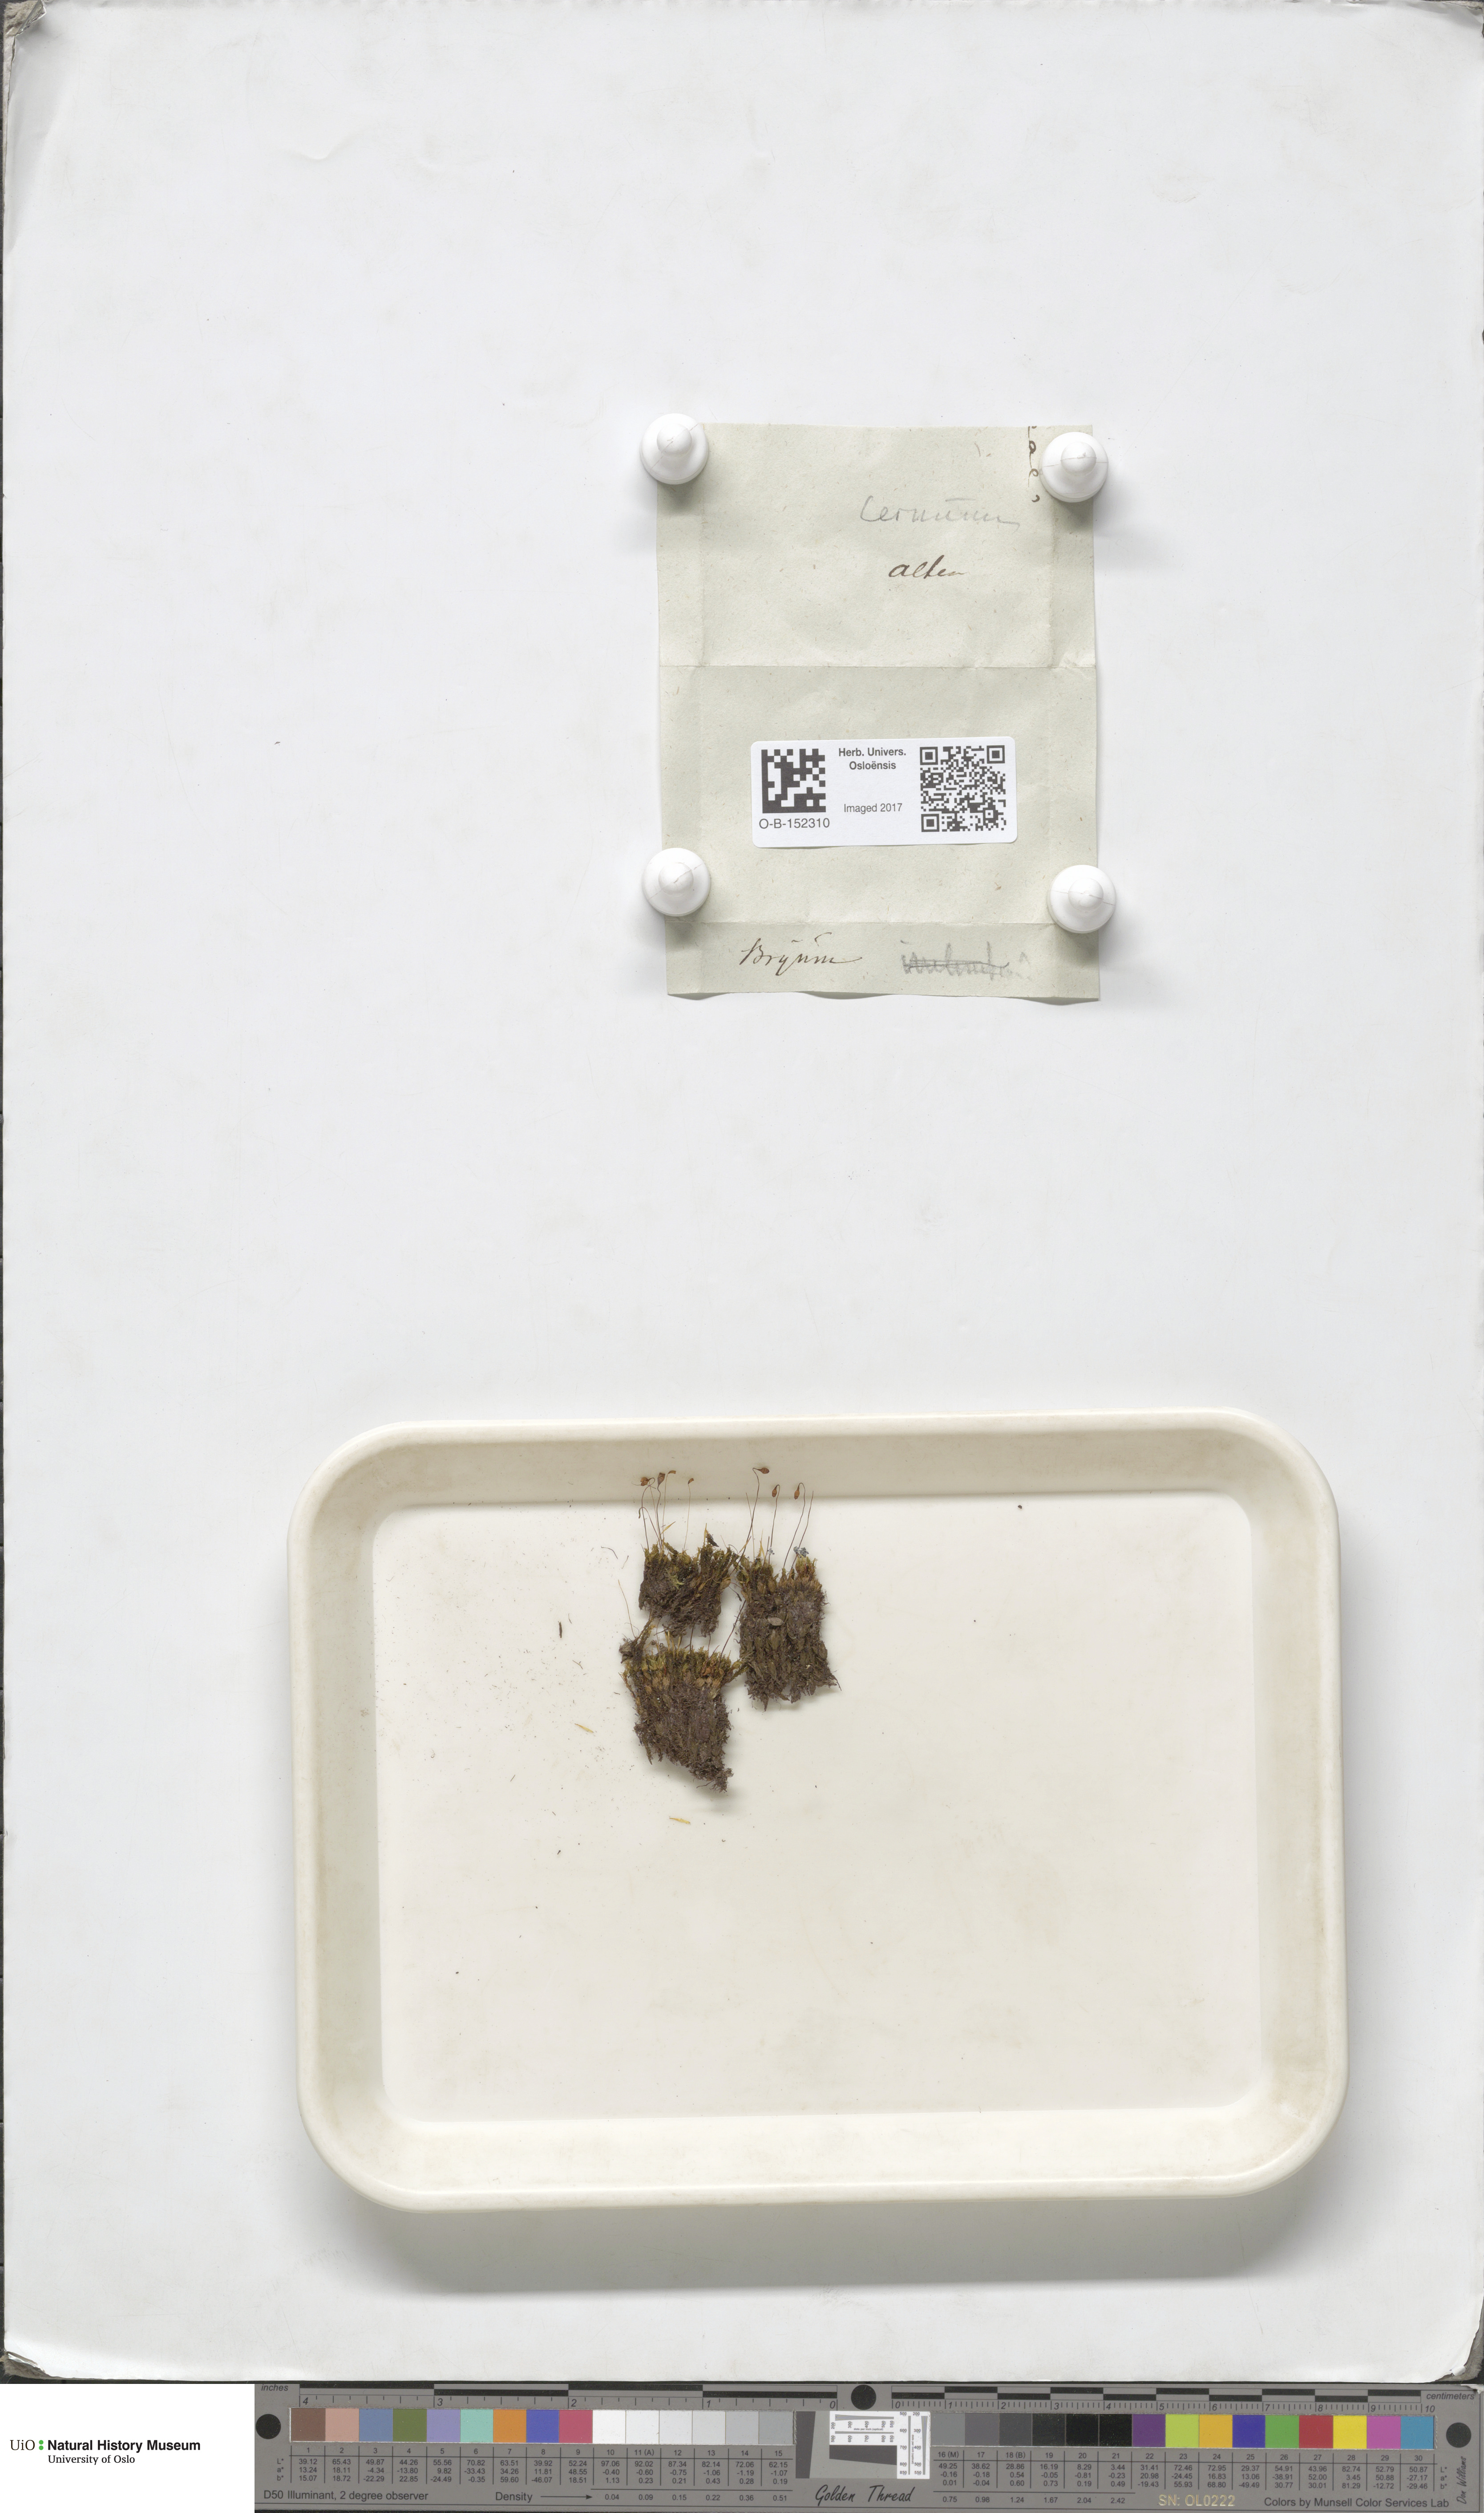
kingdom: Plantae
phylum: Bryophyta
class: Bryopsida
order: Bryales
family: Bryaceae
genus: Ptychostomum
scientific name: Ptychostomum compactum
